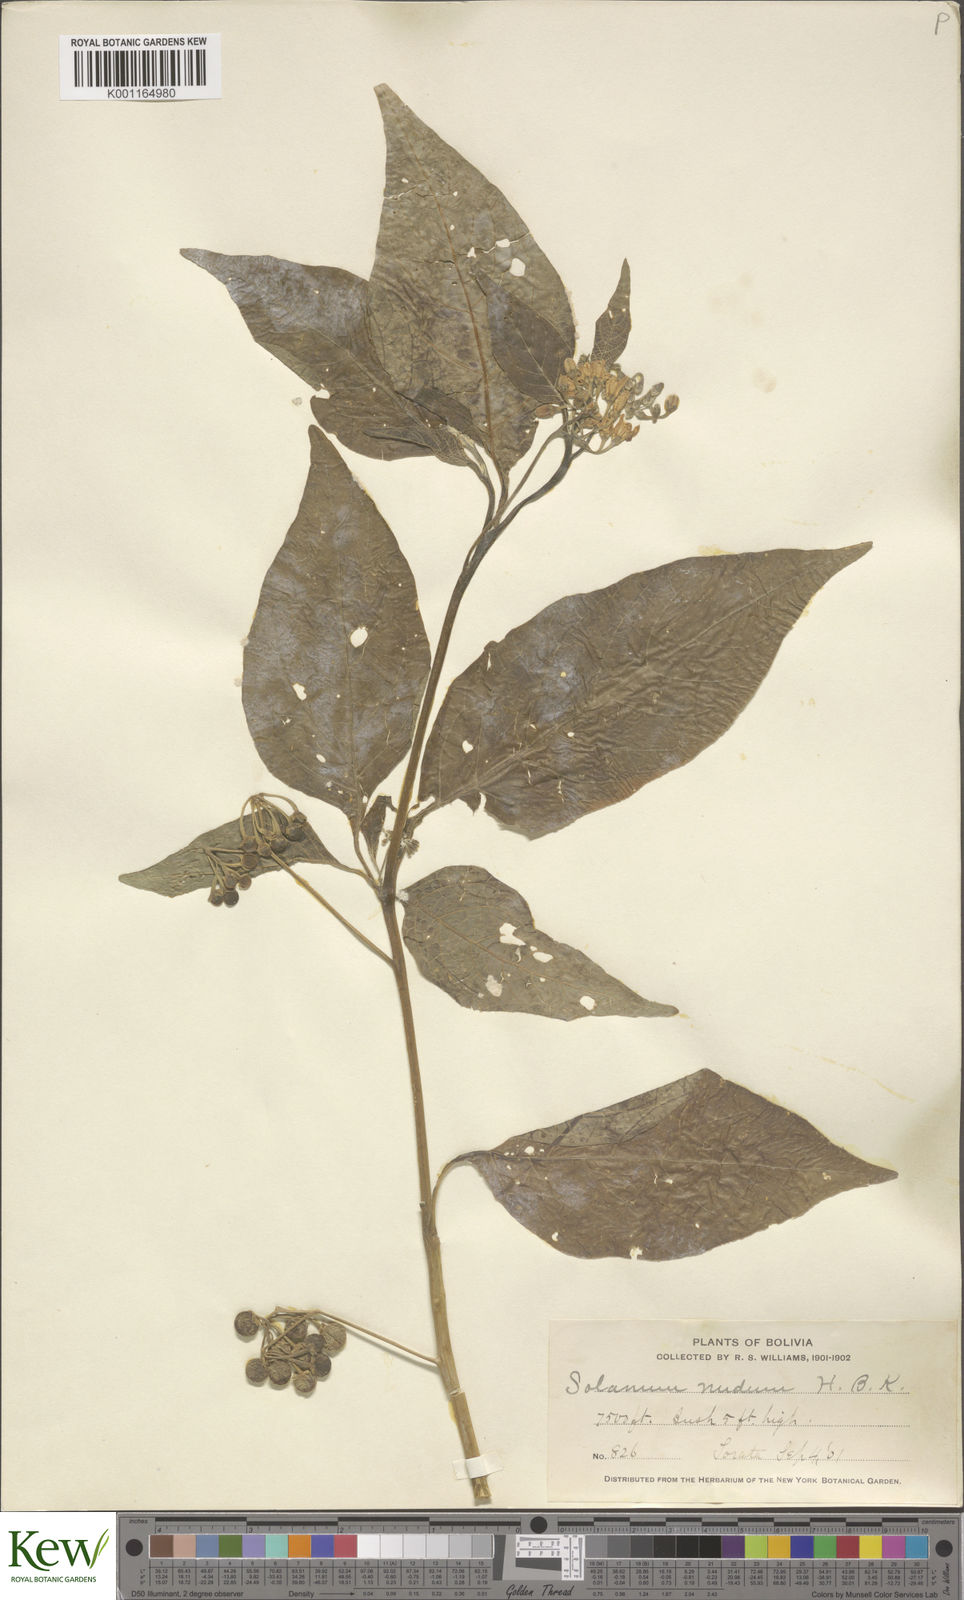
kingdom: Plantae
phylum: Tracheophyta
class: Magnoliopsida
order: Solanales
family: Solanaceae
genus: Solanum
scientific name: Solanum nudum
